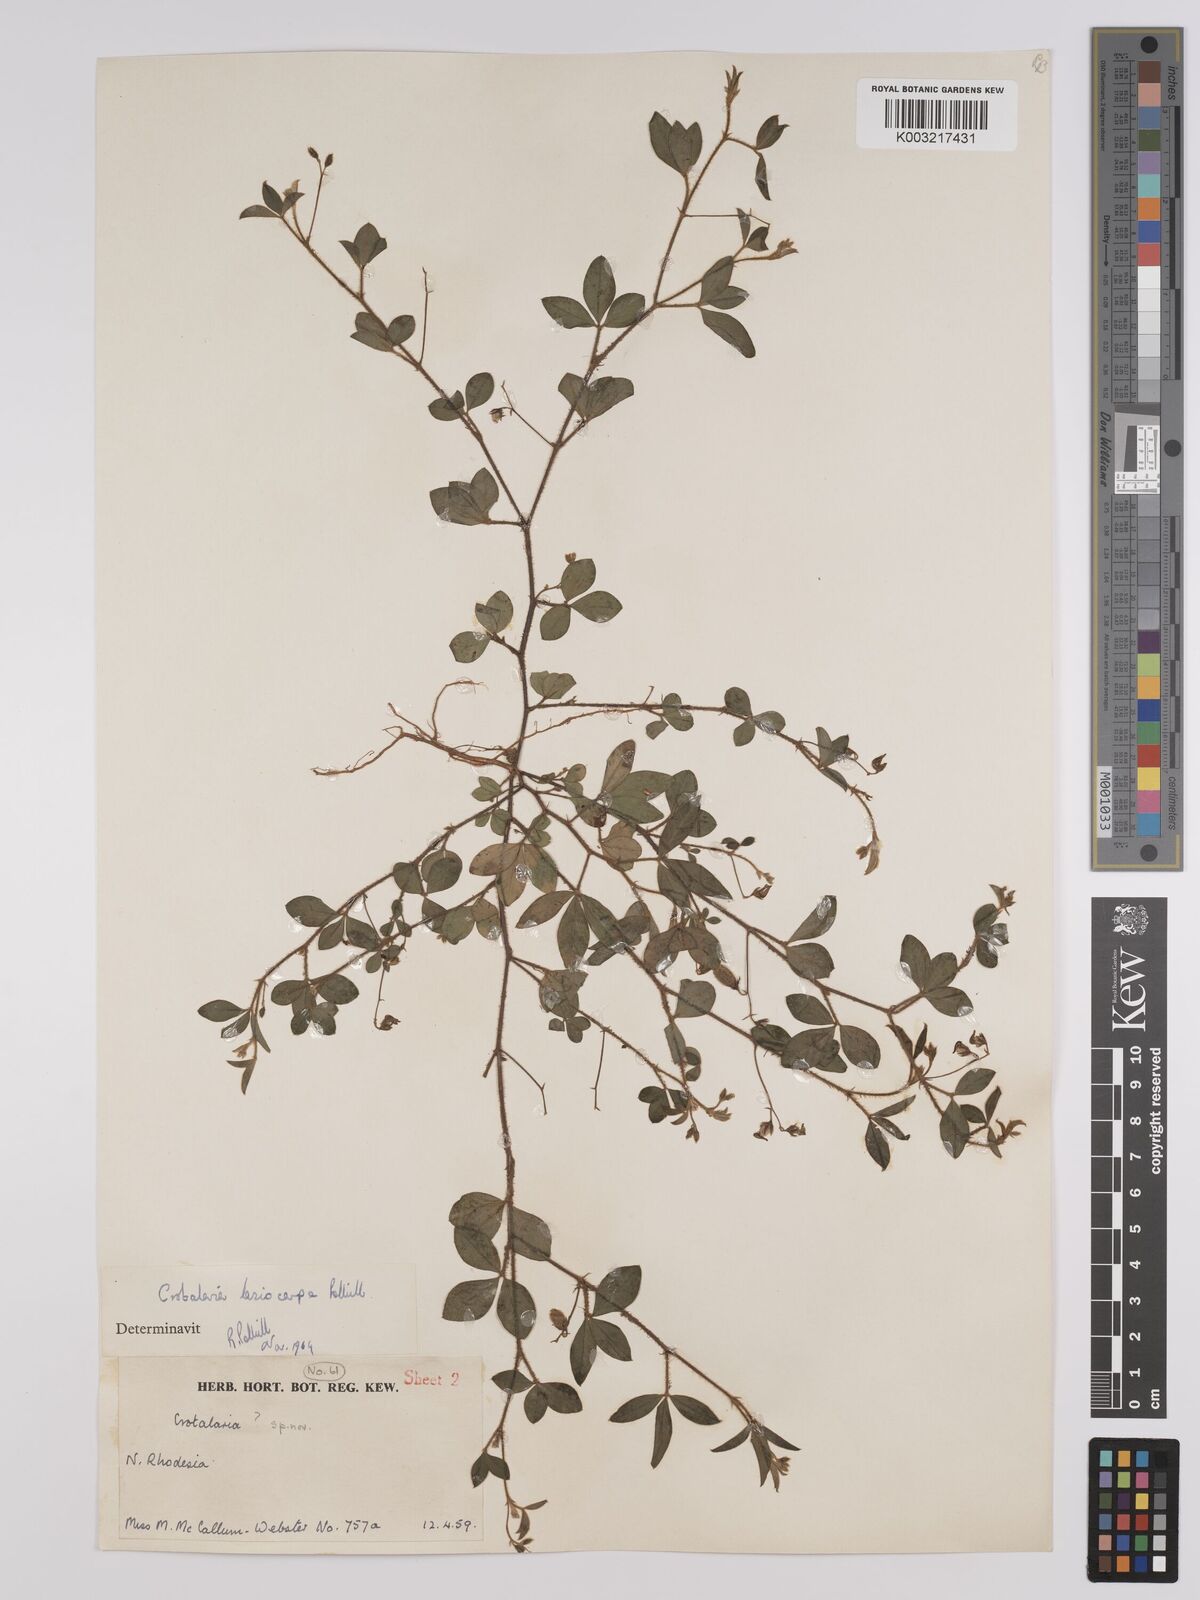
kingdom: Plantae
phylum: Tracheophyta
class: Magnoliopsida
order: Fabales
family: Fabaceae
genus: Crotalaria
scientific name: Crotalaria lasiocarpa
